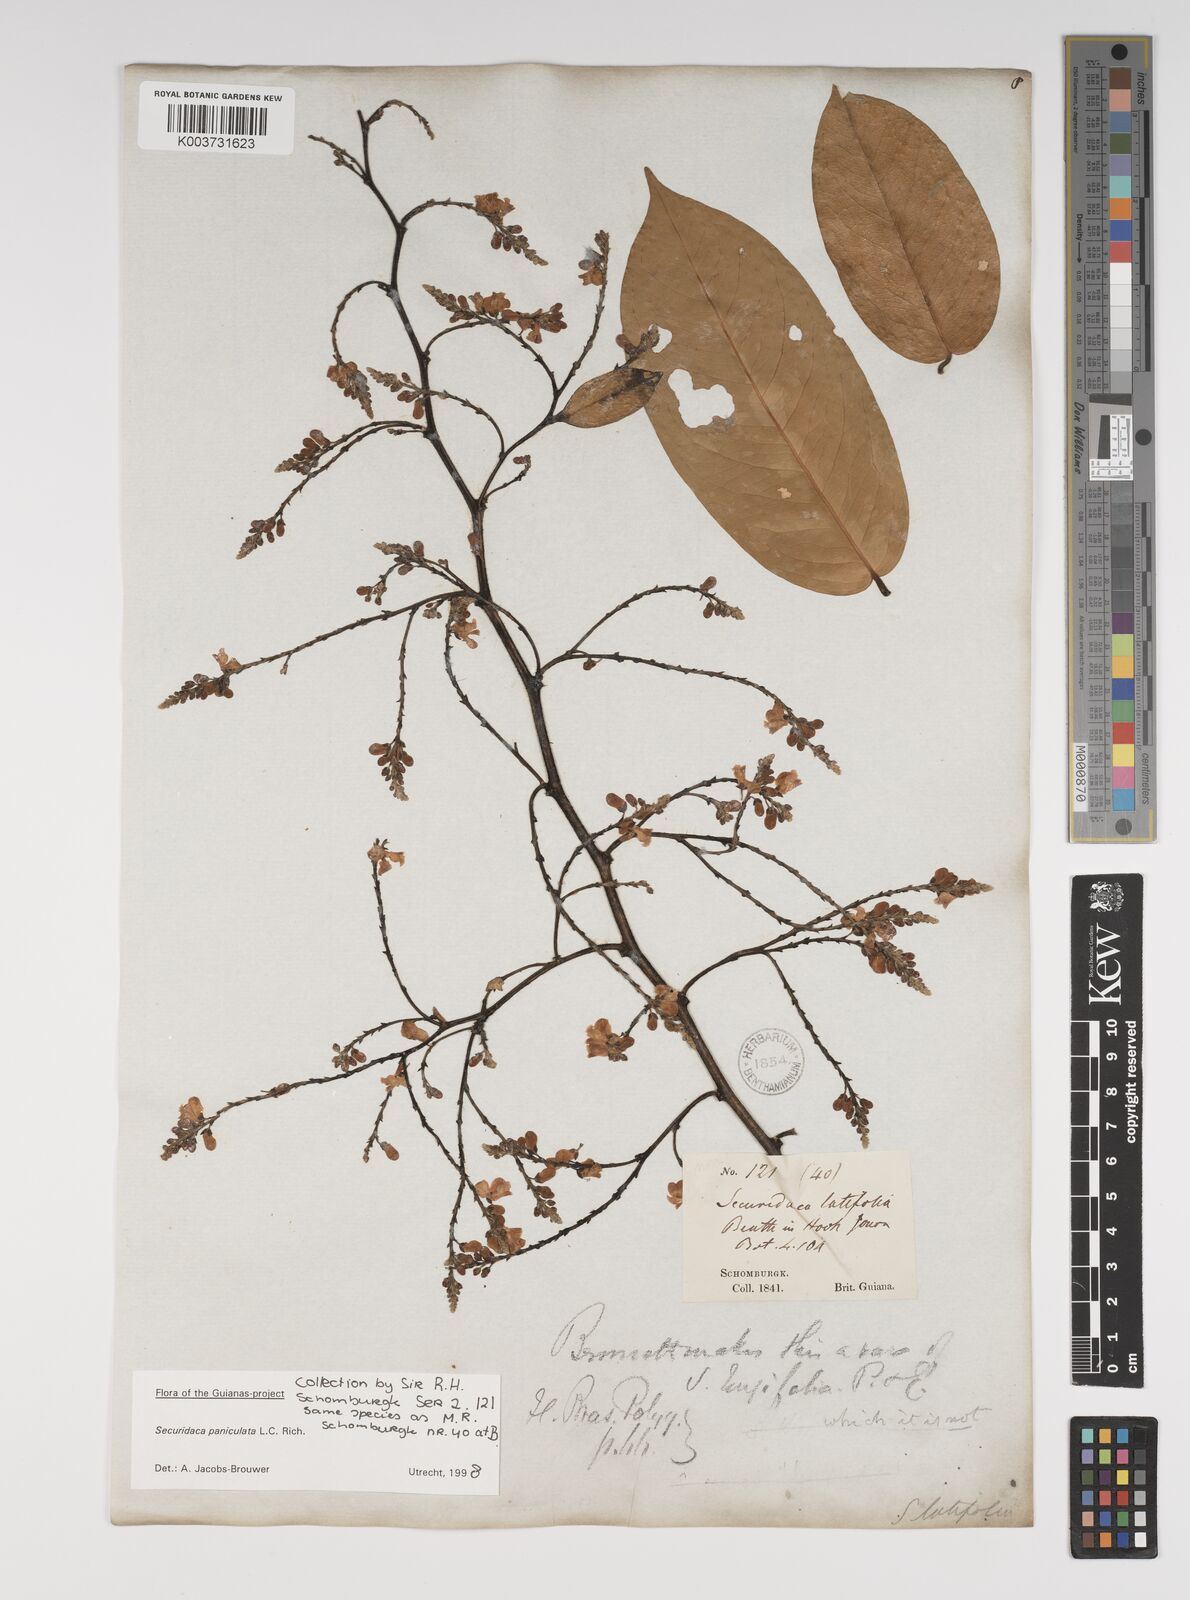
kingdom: Plantae
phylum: Tracheophyta
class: Magnoliopsida
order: Fabales
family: Polygalaceae
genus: Securidaca
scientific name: Securidaca paniculata
